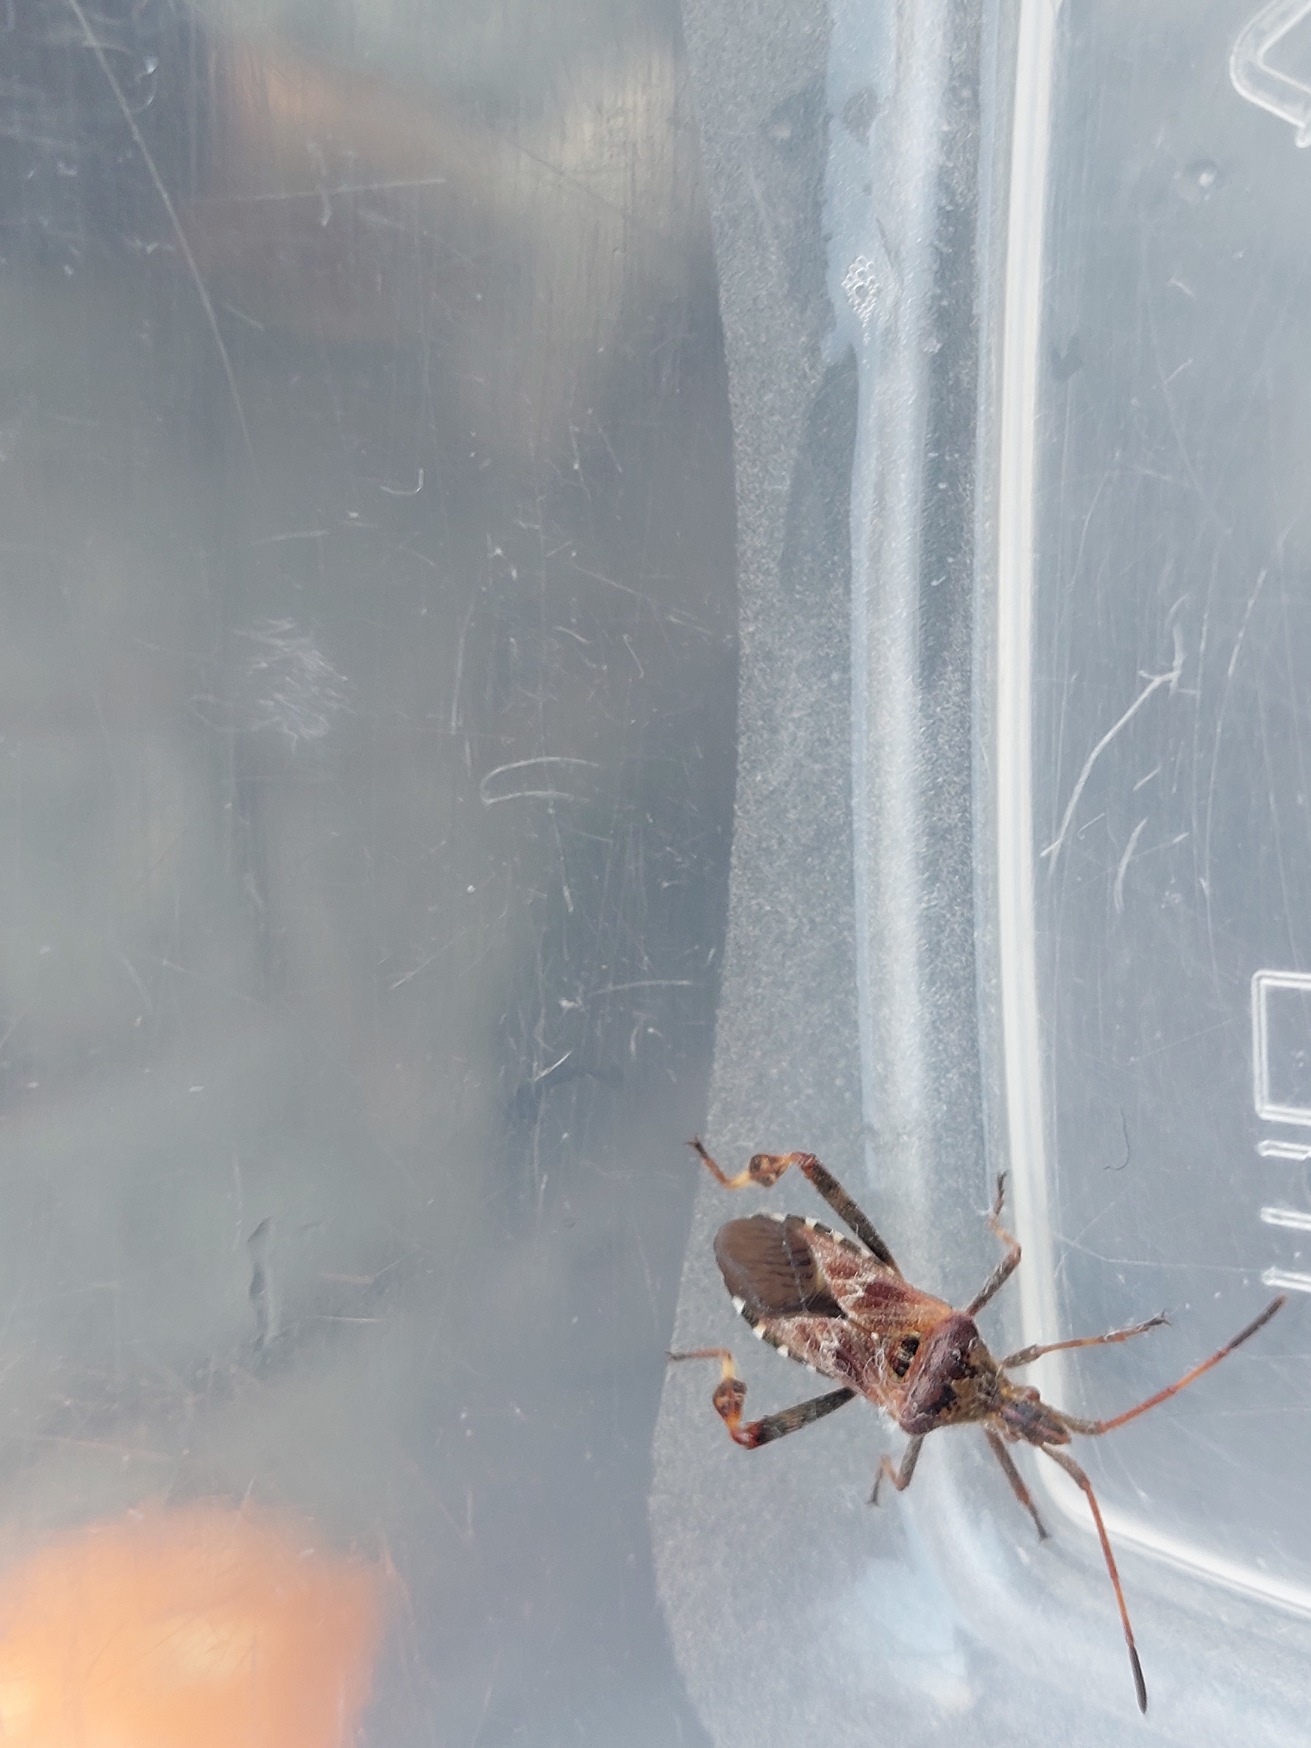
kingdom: Animalia
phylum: Arthropoda
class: Insecta
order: Hemiptera
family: Coreidae
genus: Leptoglossus
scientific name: Leptoglossus occidentalis
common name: Amerikansk fyrretæge
